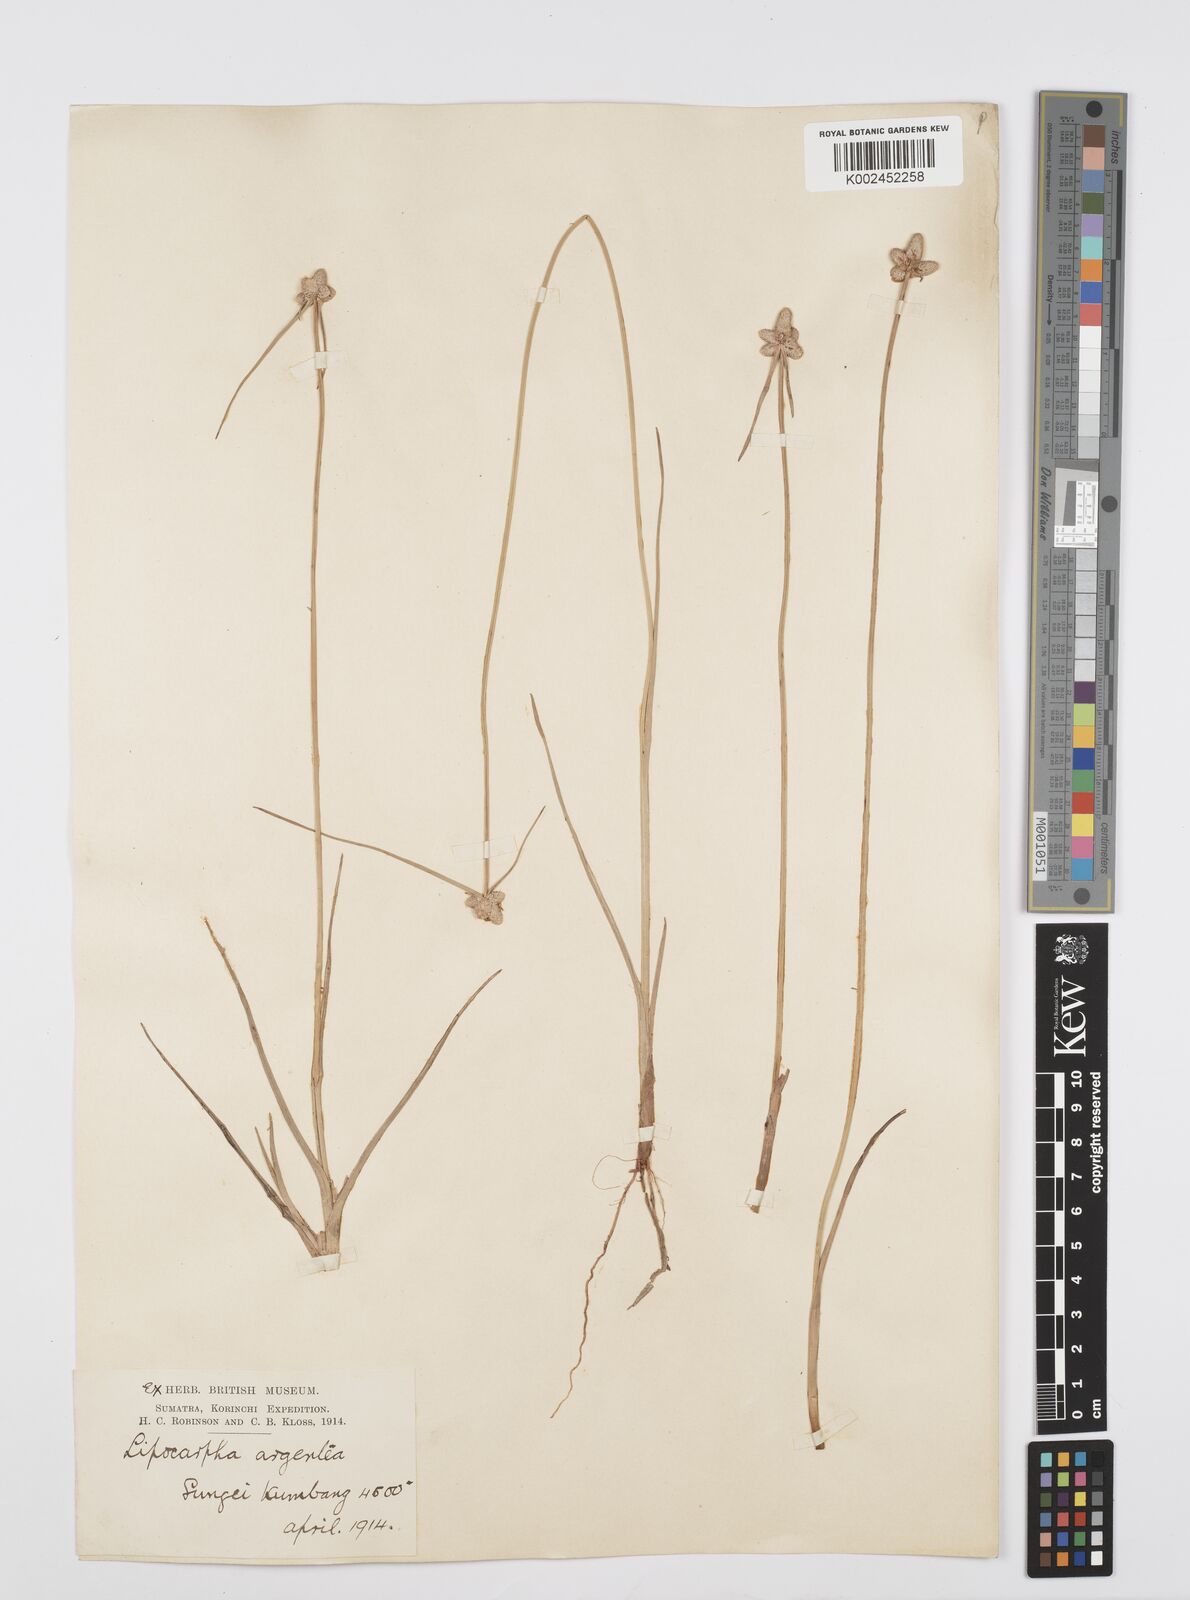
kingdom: Plantae
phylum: Tracheophyta
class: Liliopsida
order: Poales
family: Cyperaceae
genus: Cyperus
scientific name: Cyperus
